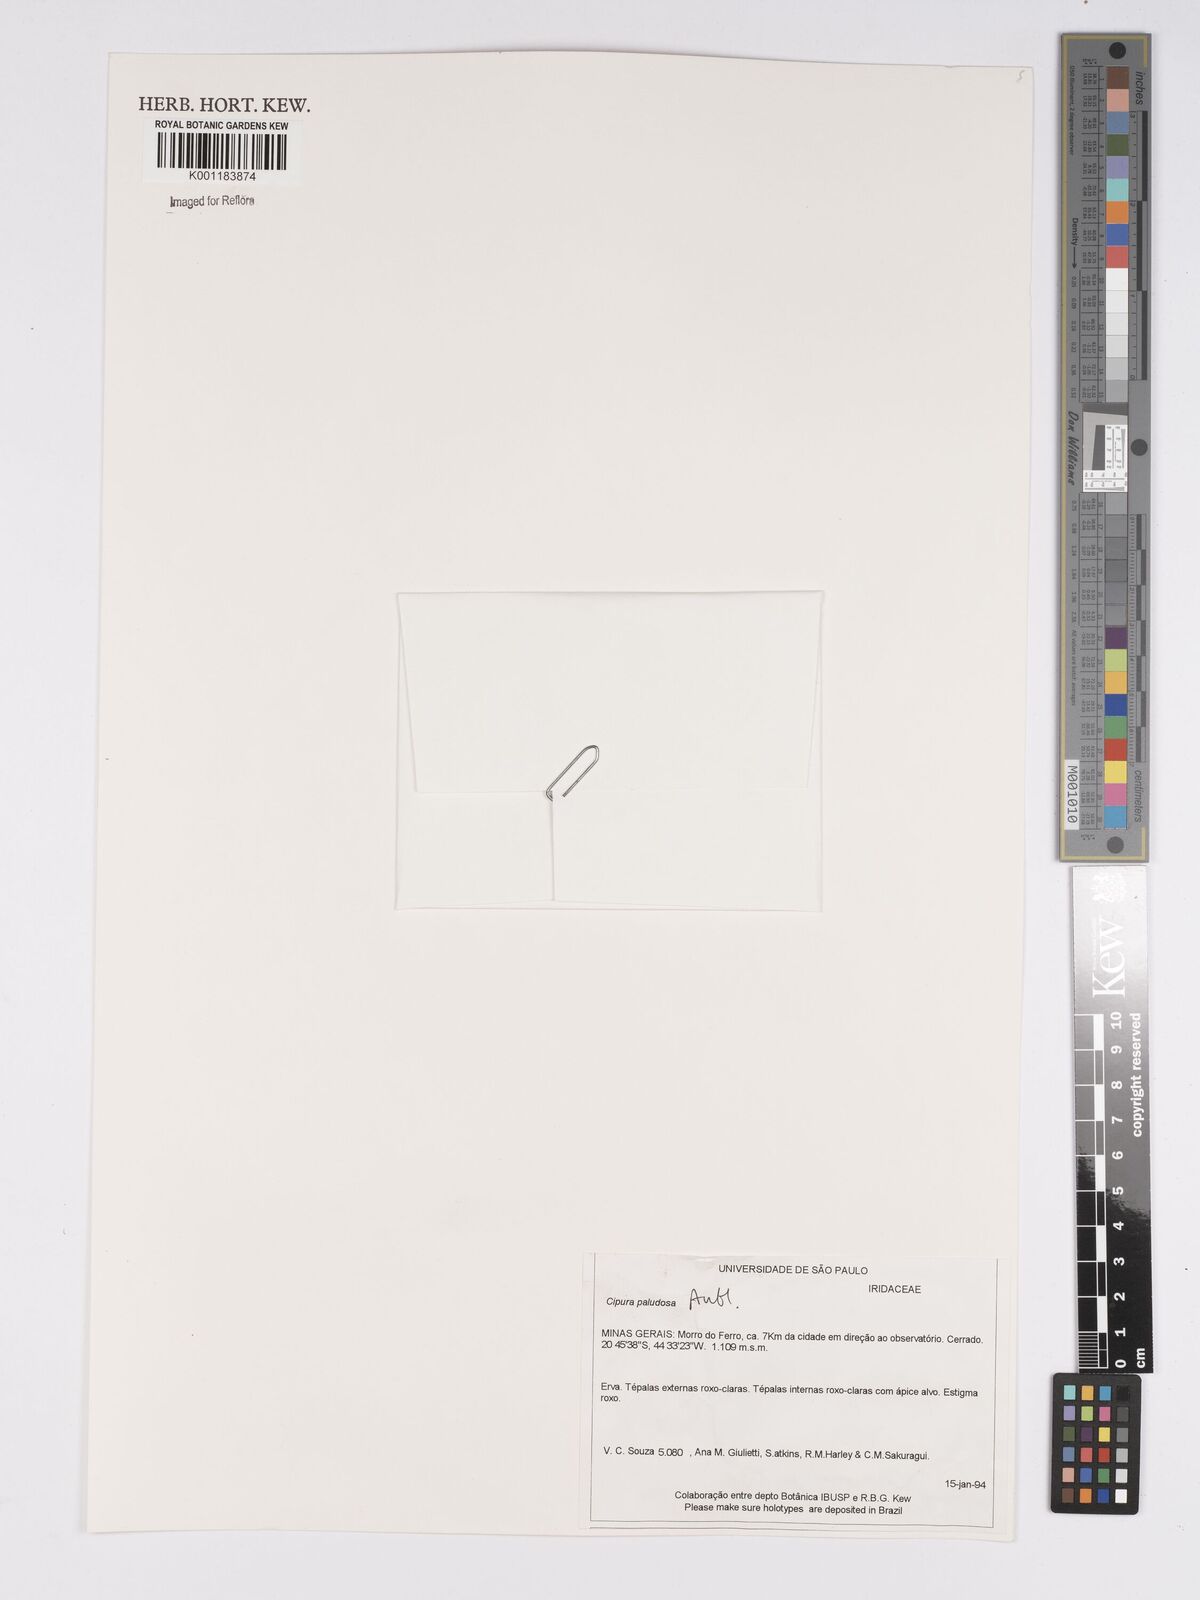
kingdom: Plantae
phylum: Tracheophyta
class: Liliopsida
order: Asparagales
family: Iridaceae
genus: Cipura
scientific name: Cipura paludosa
